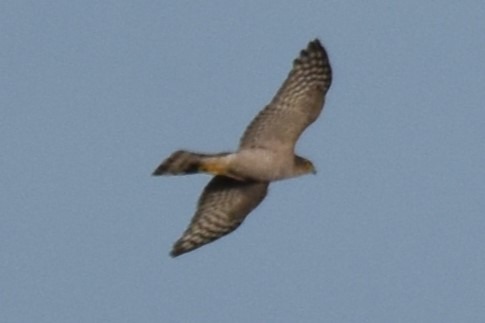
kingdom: Animalia
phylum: Chordata
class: Aves
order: Accipitriformes
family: Accipitridae
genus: Accipiter
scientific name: Accipiter nisus
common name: Spurvehøg
